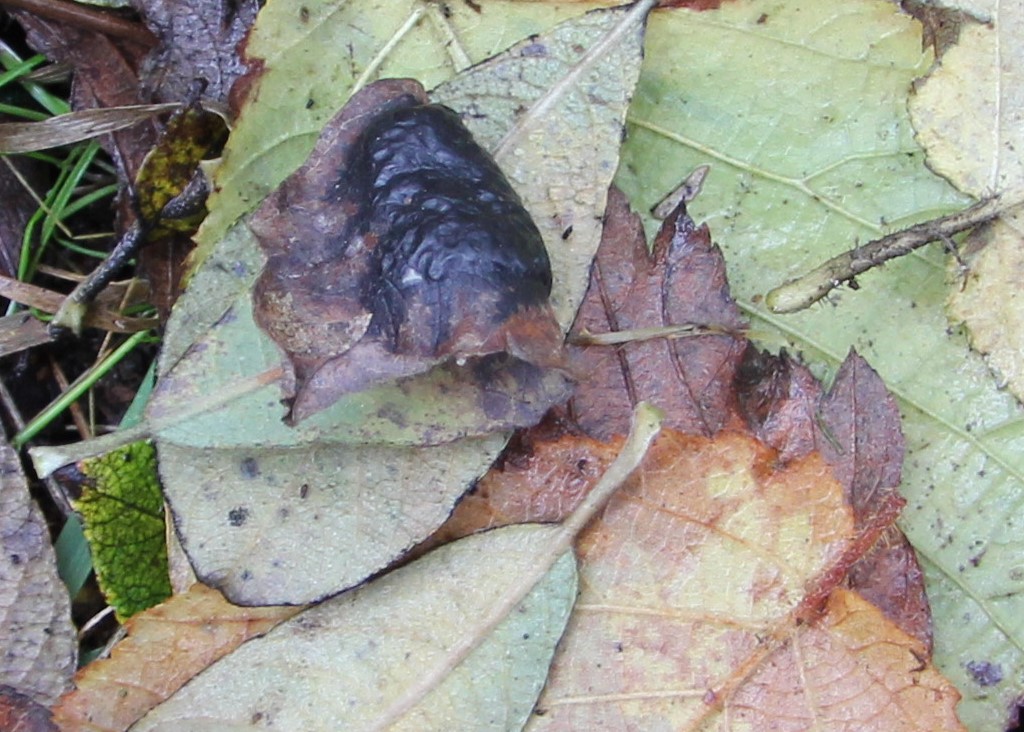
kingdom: Fungi
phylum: Ascomycota
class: Leotiomycetes
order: Rhytismatales
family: Rhytismataceae
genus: Rhytisma
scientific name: Rhytisma salicinum
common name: pile-rynkeplet
